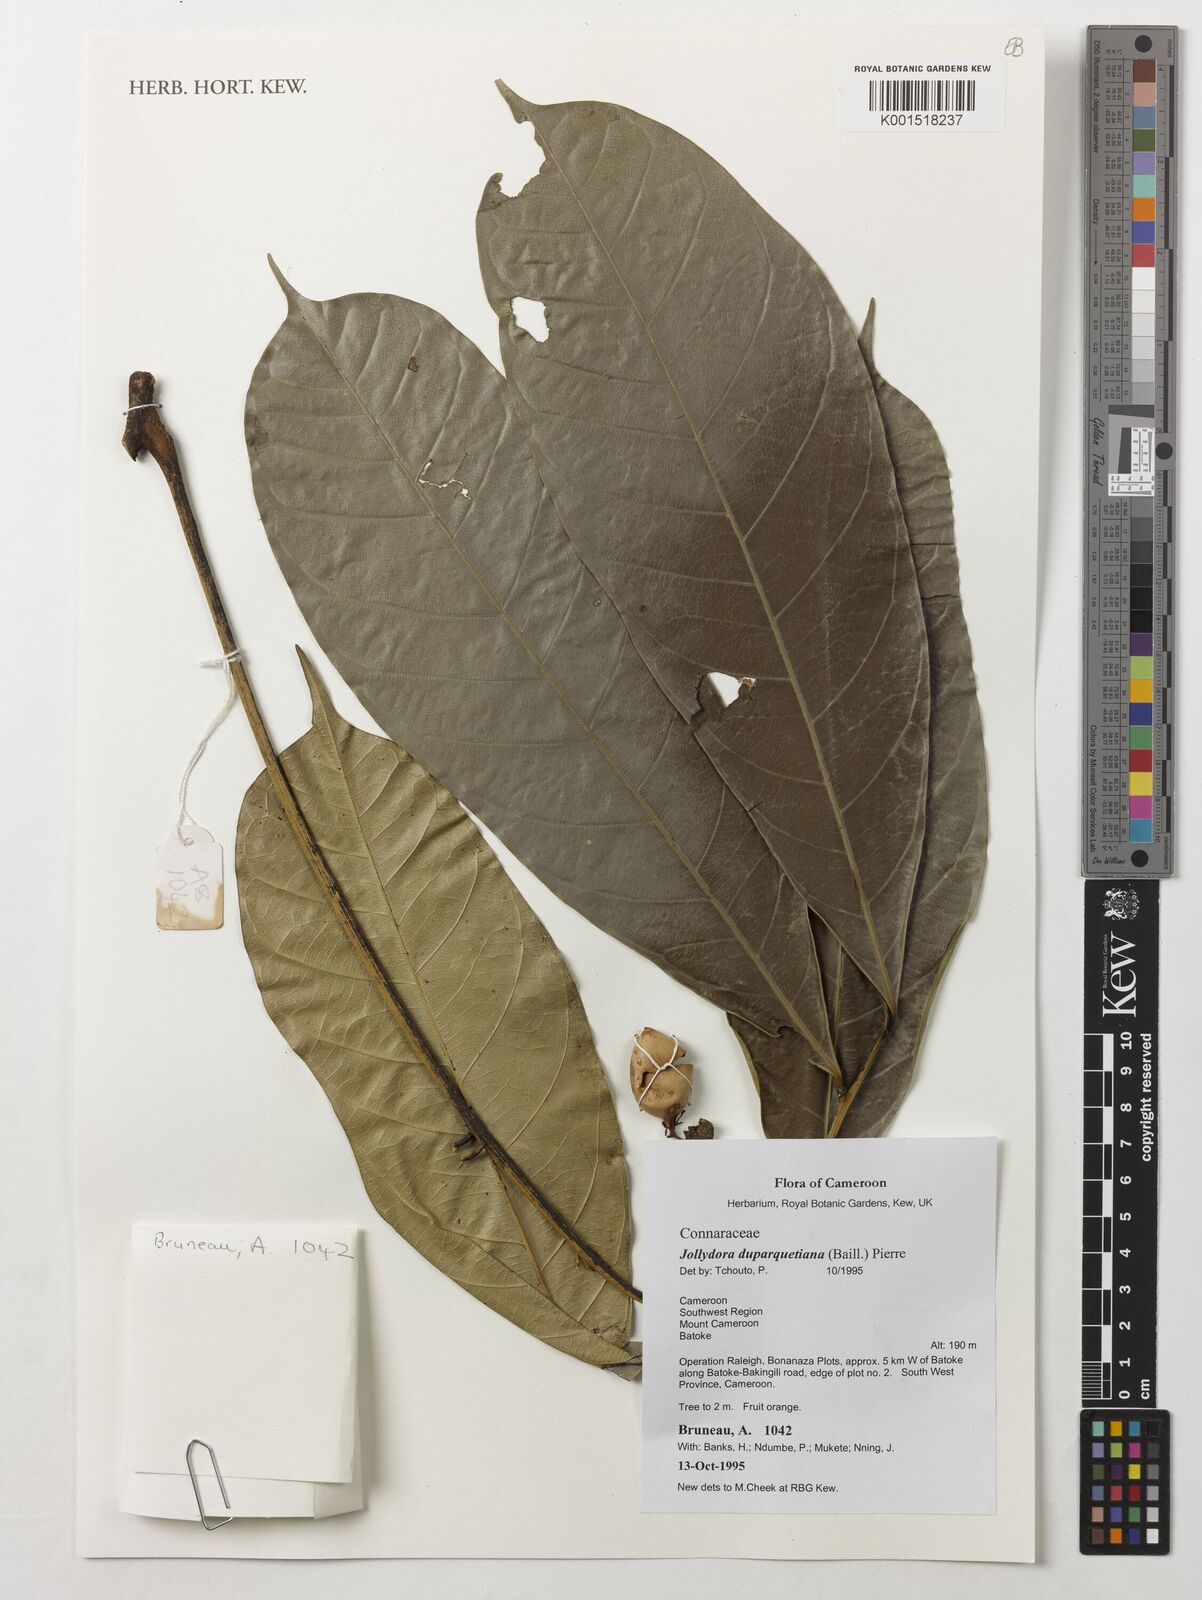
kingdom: Plantae
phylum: Tracheophyta
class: Magnoliopsida
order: Oxalidales
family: Connaraceae
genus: Jollydora
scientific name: Jollydora duparquetiana
